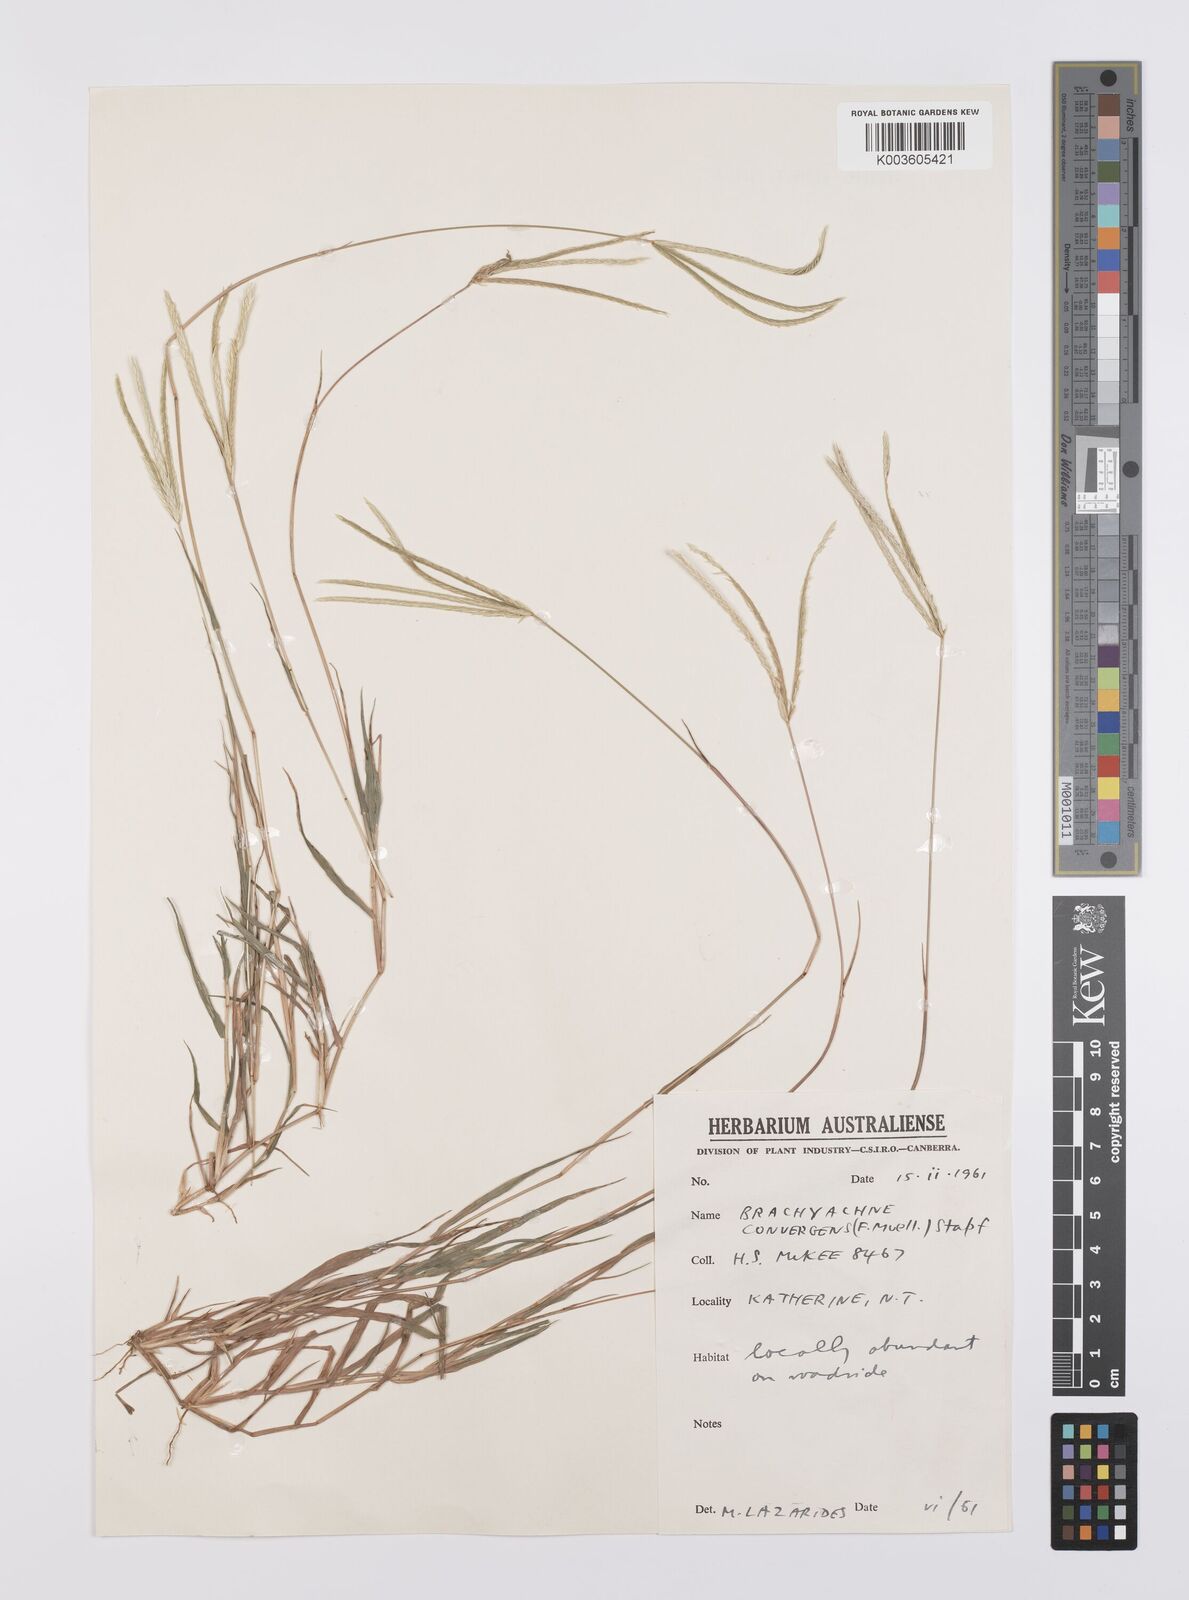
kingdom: Plantae
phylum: Tracheophyta
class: Liliopsida
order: Poales
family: Poaceae
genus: Cynodon
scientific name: Cynodon convergens
